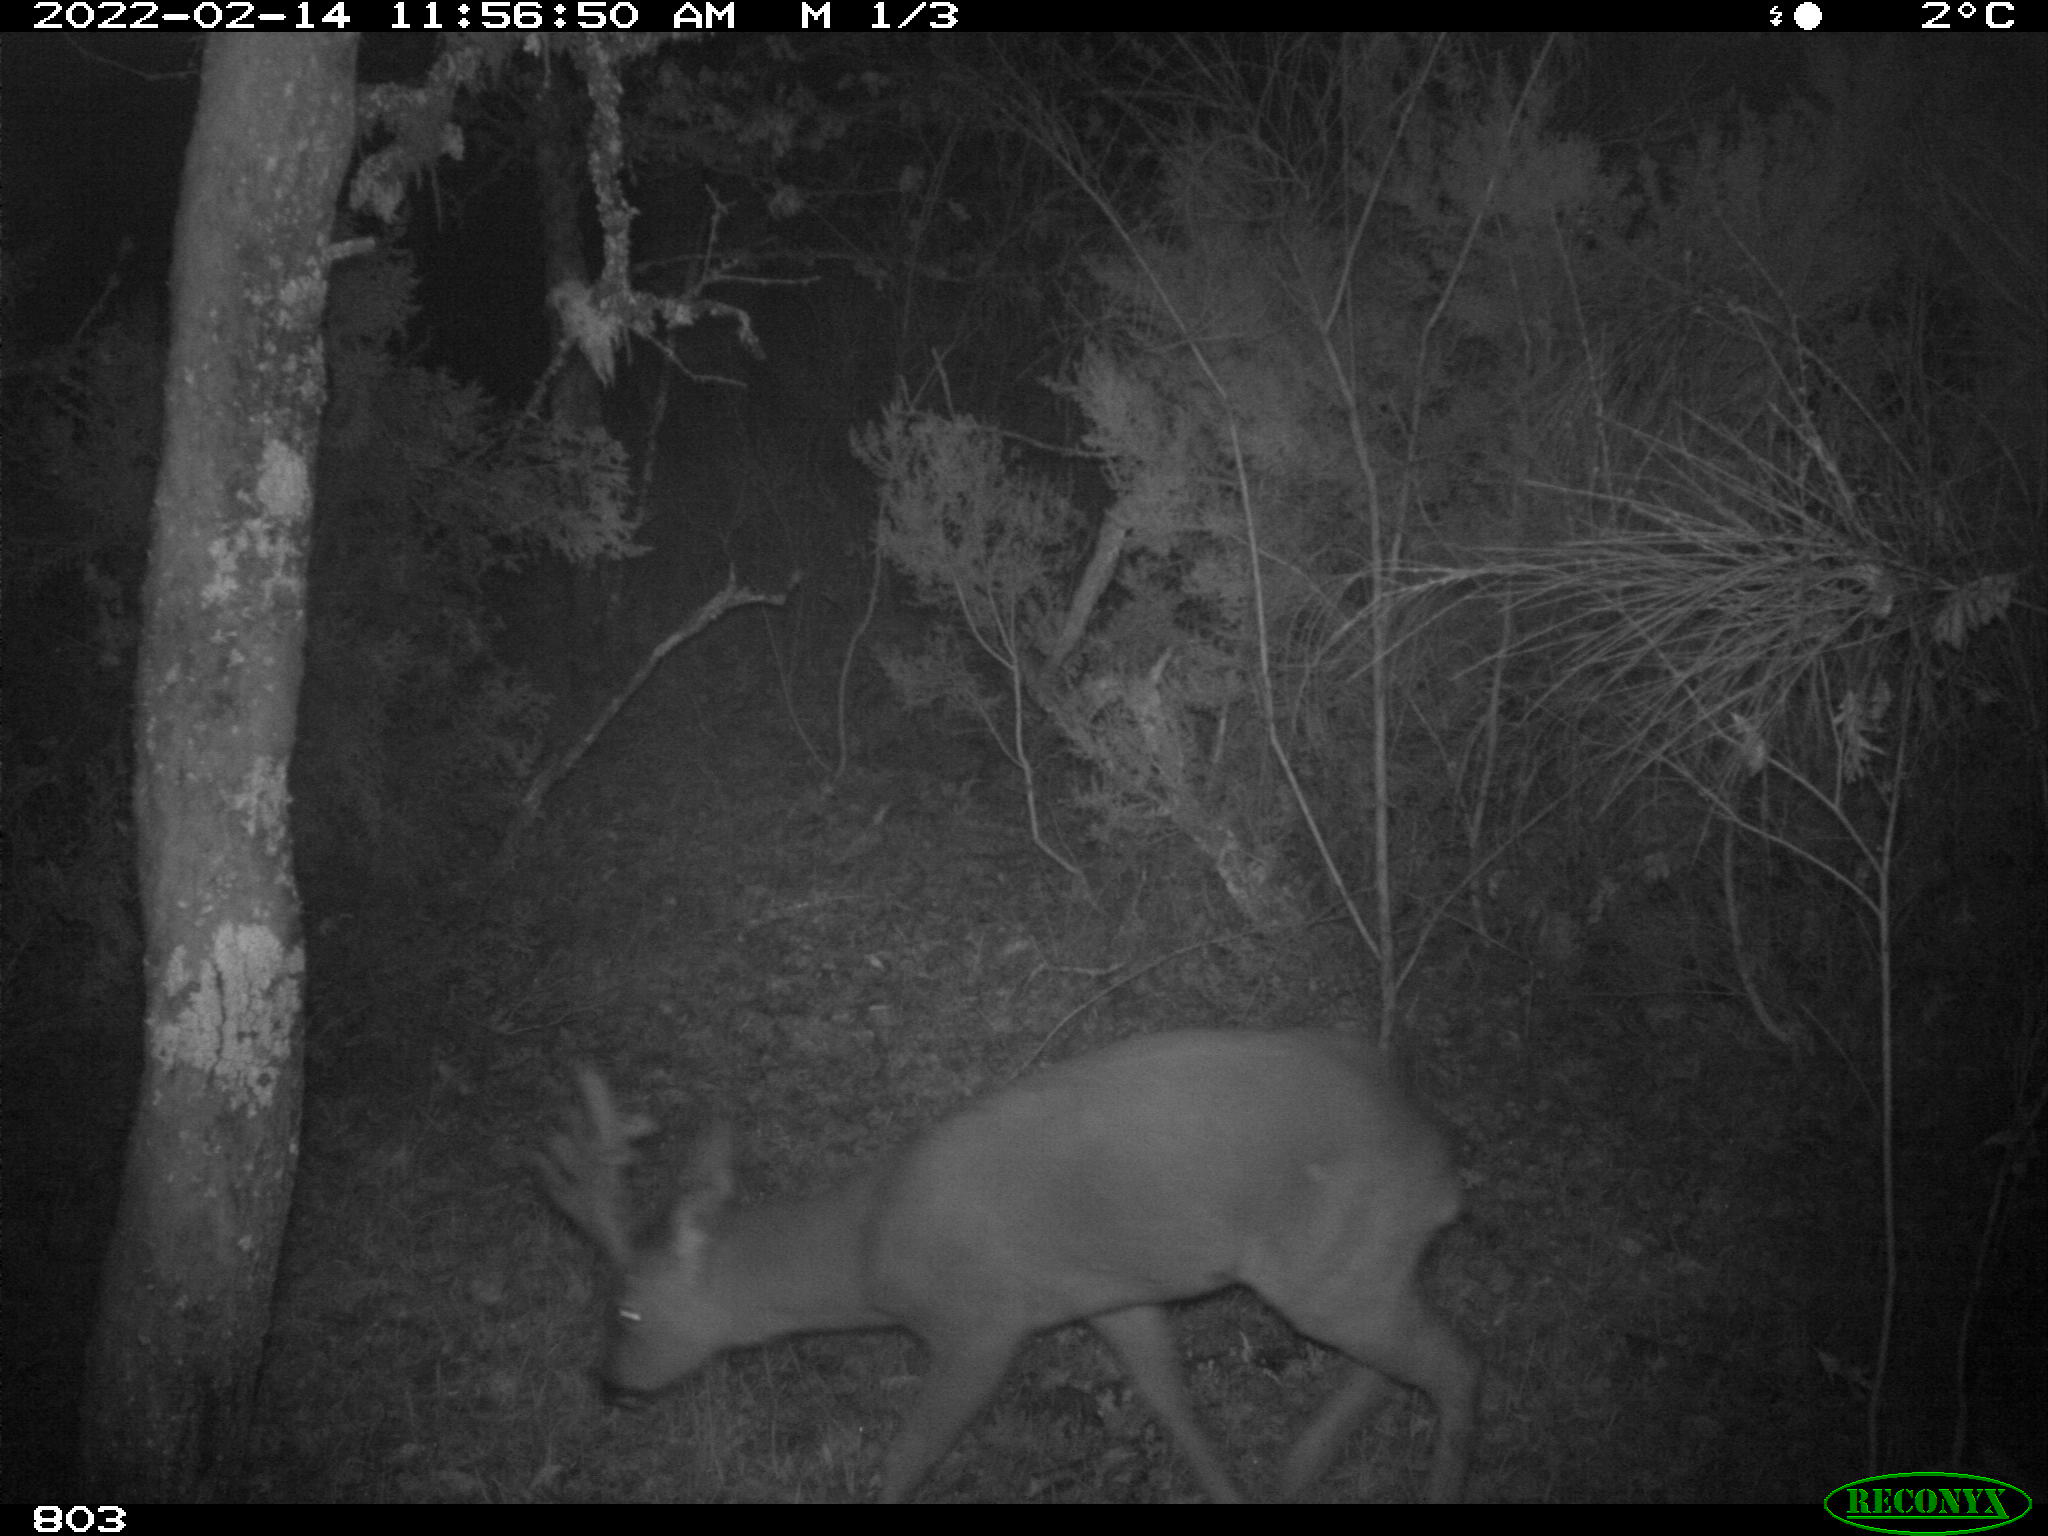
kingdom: Animalia
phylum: Chordata
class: Mammalia
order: Artiodactyla
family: Cervidae
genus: Capreolus
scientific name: Capreolus capreolus
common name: Western roe deer
